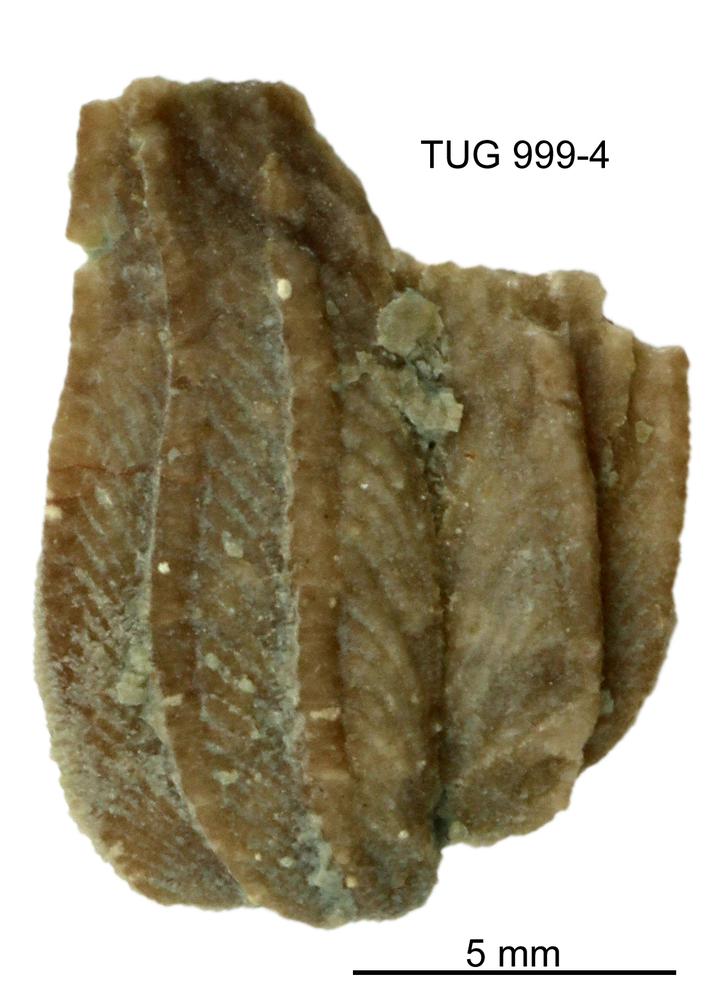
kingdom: Animalia
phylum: Echinodermata
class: Crinoidea
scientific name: Crinoidea
